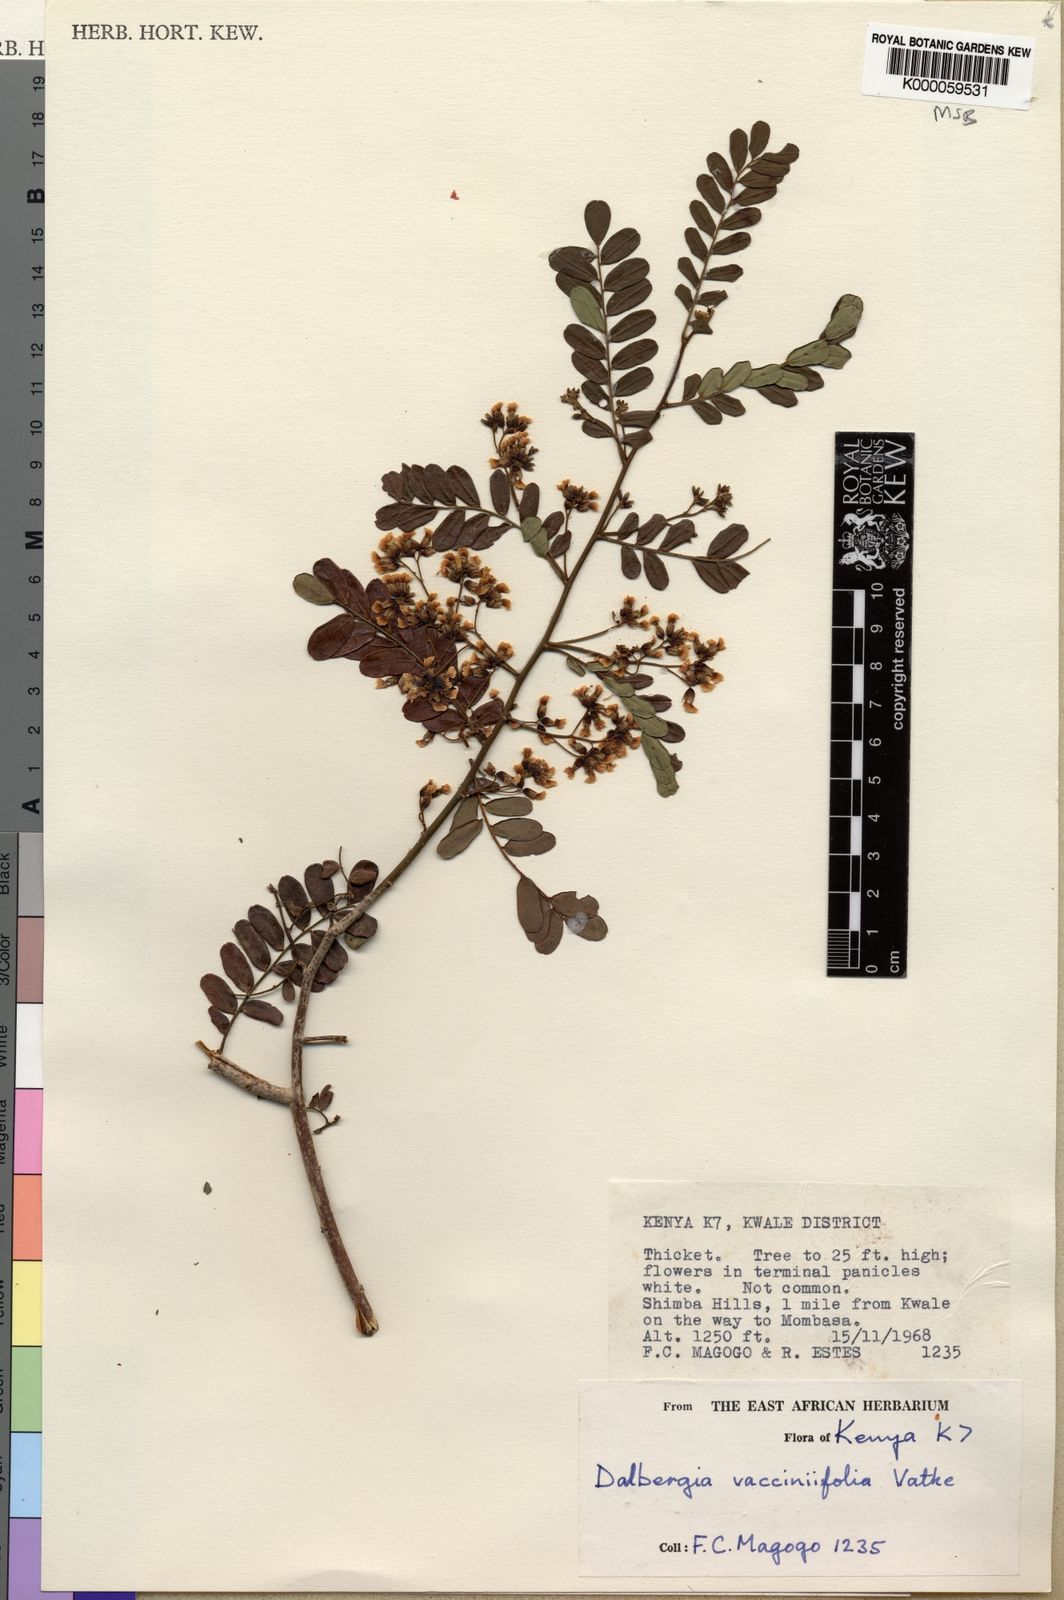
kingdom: Plantae
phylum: Tracheophyta
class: Magnoliopsida
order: Fabales
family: Fabaceae
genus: Dalbergia
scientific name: Dalbergia vacciniifolia
